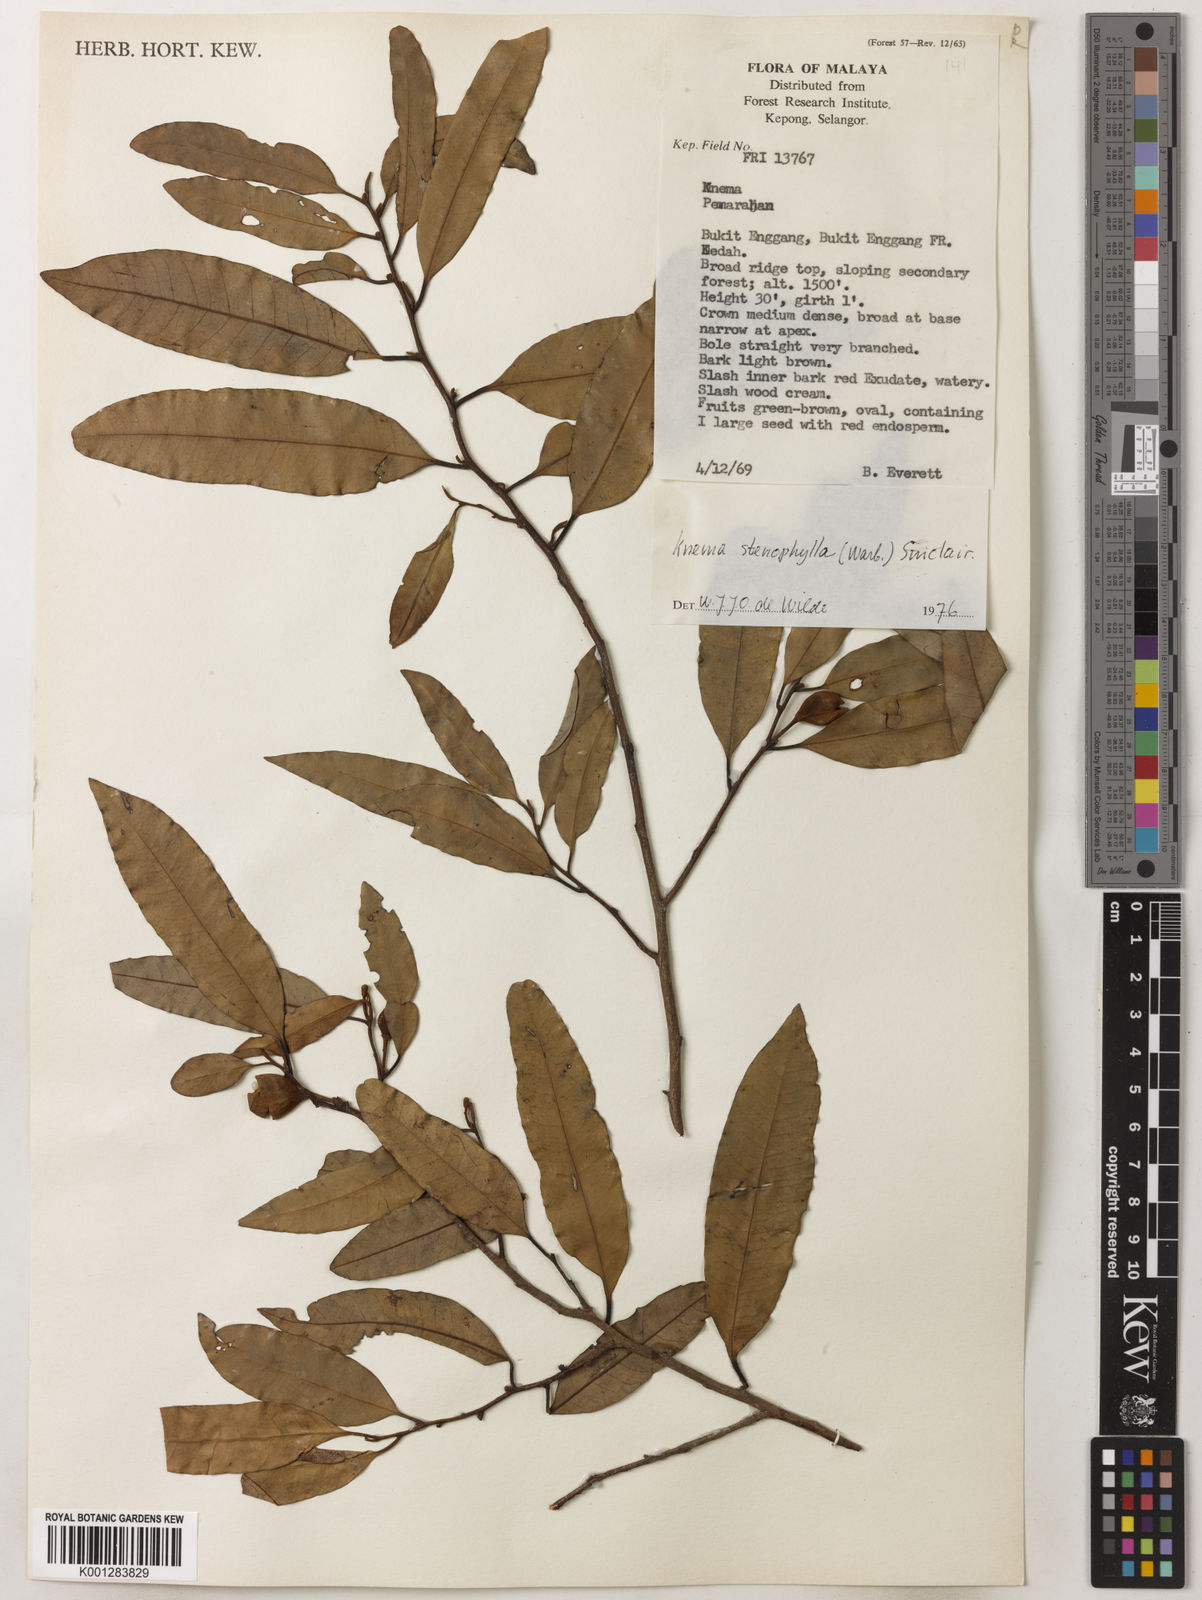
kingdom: Plantae
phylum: Tracheophyta
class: Magnoliopsida
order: Magnoliales
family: Myristicaceae
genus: Knema
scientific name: Knema stenophylla
